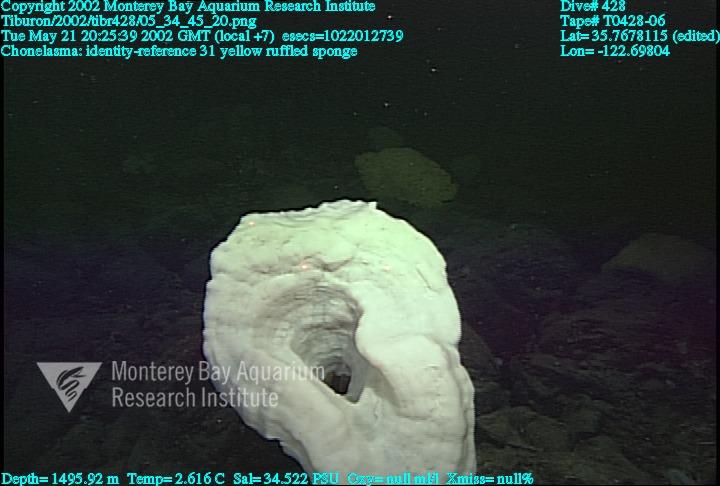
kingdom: Animalia
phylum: Porifera
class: Hexactinellida
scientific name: Hexactinellida
